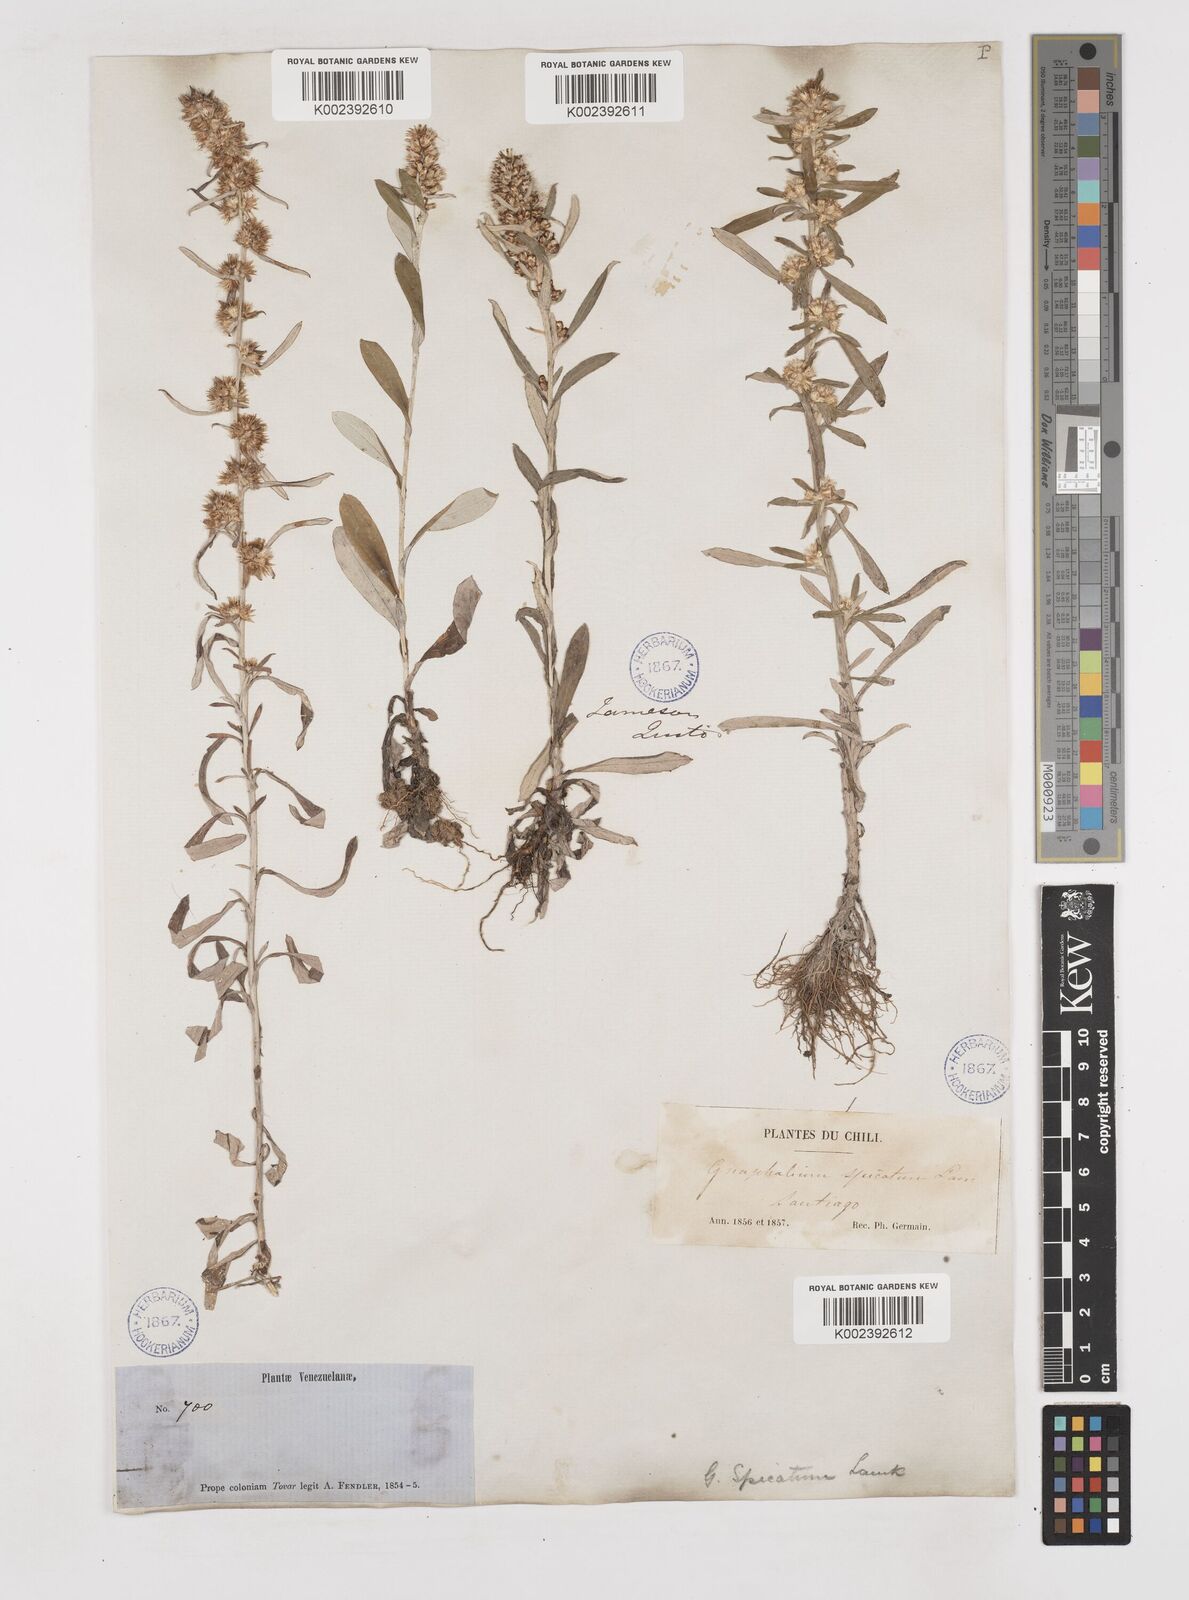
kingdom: Plantae
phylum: Tracheophyta
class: Magnoliopsida
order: Asterales
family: Asteraceae
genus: Gamochaeta
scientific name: Gamochaeta americana
